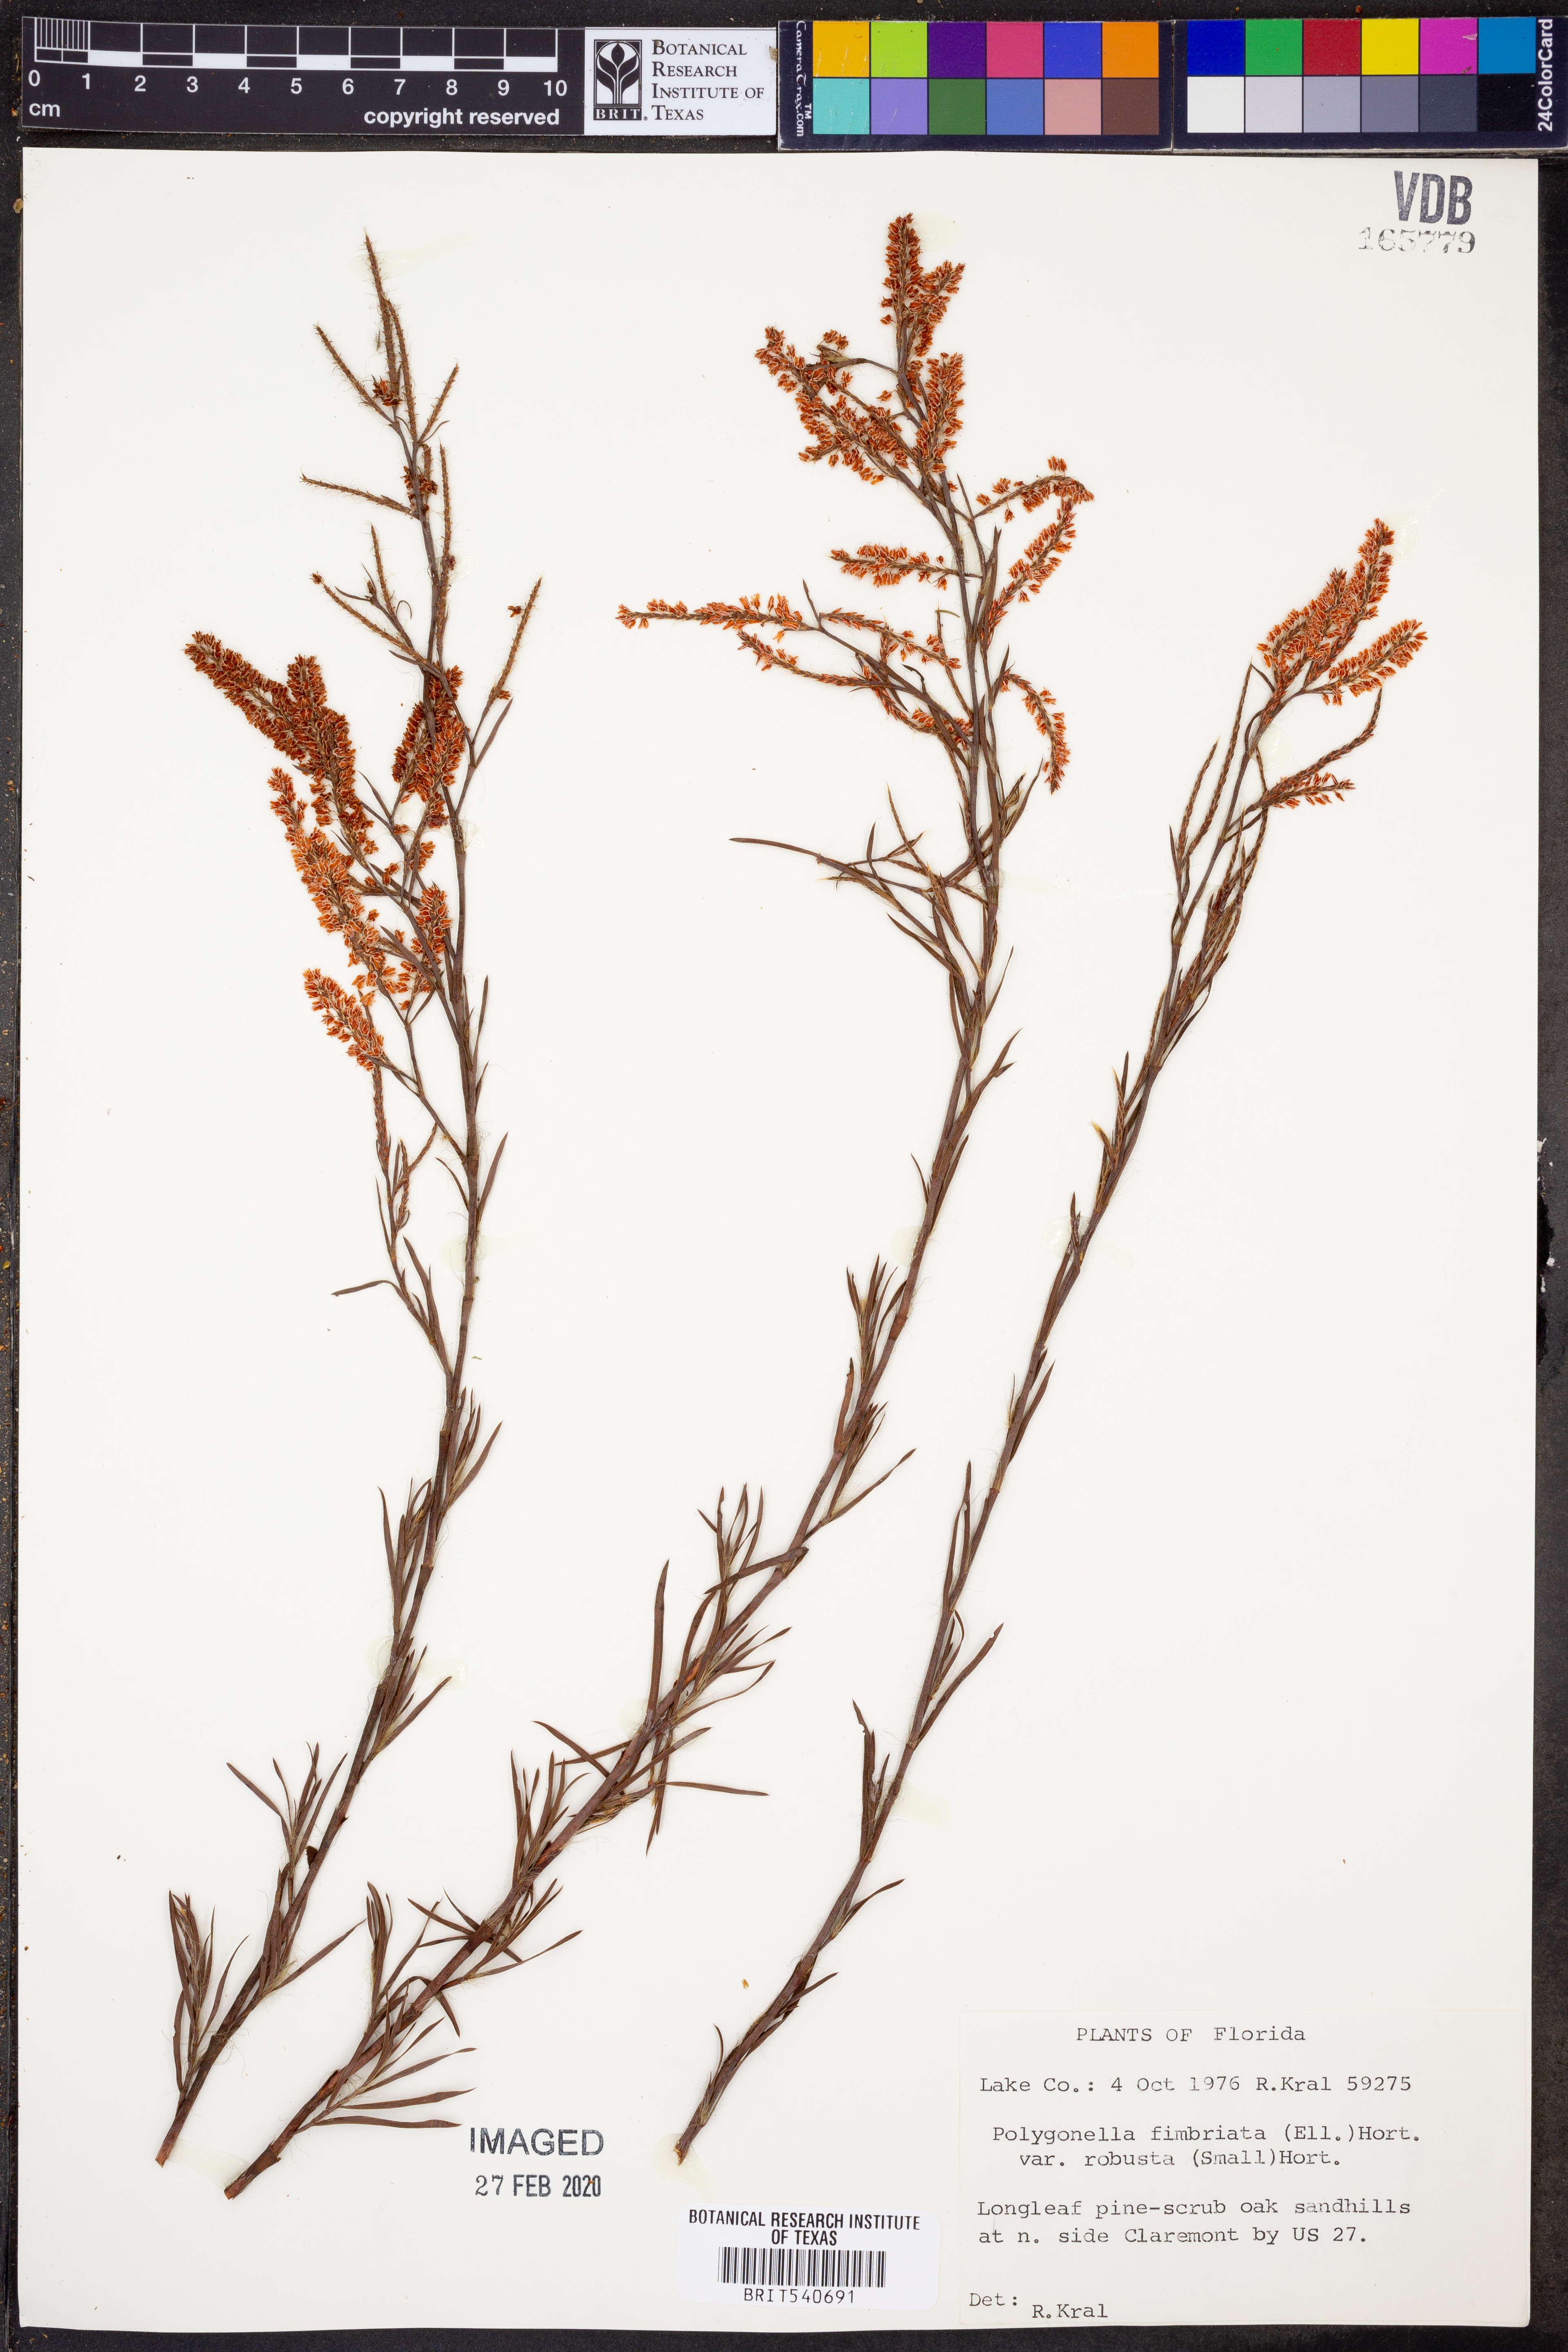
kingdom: Plantae
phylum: Tracheophyta
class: Magnoliopsida
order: Caryophyllales
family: Polygonaceae
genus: Polygonella
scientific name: Polygonella robusta
